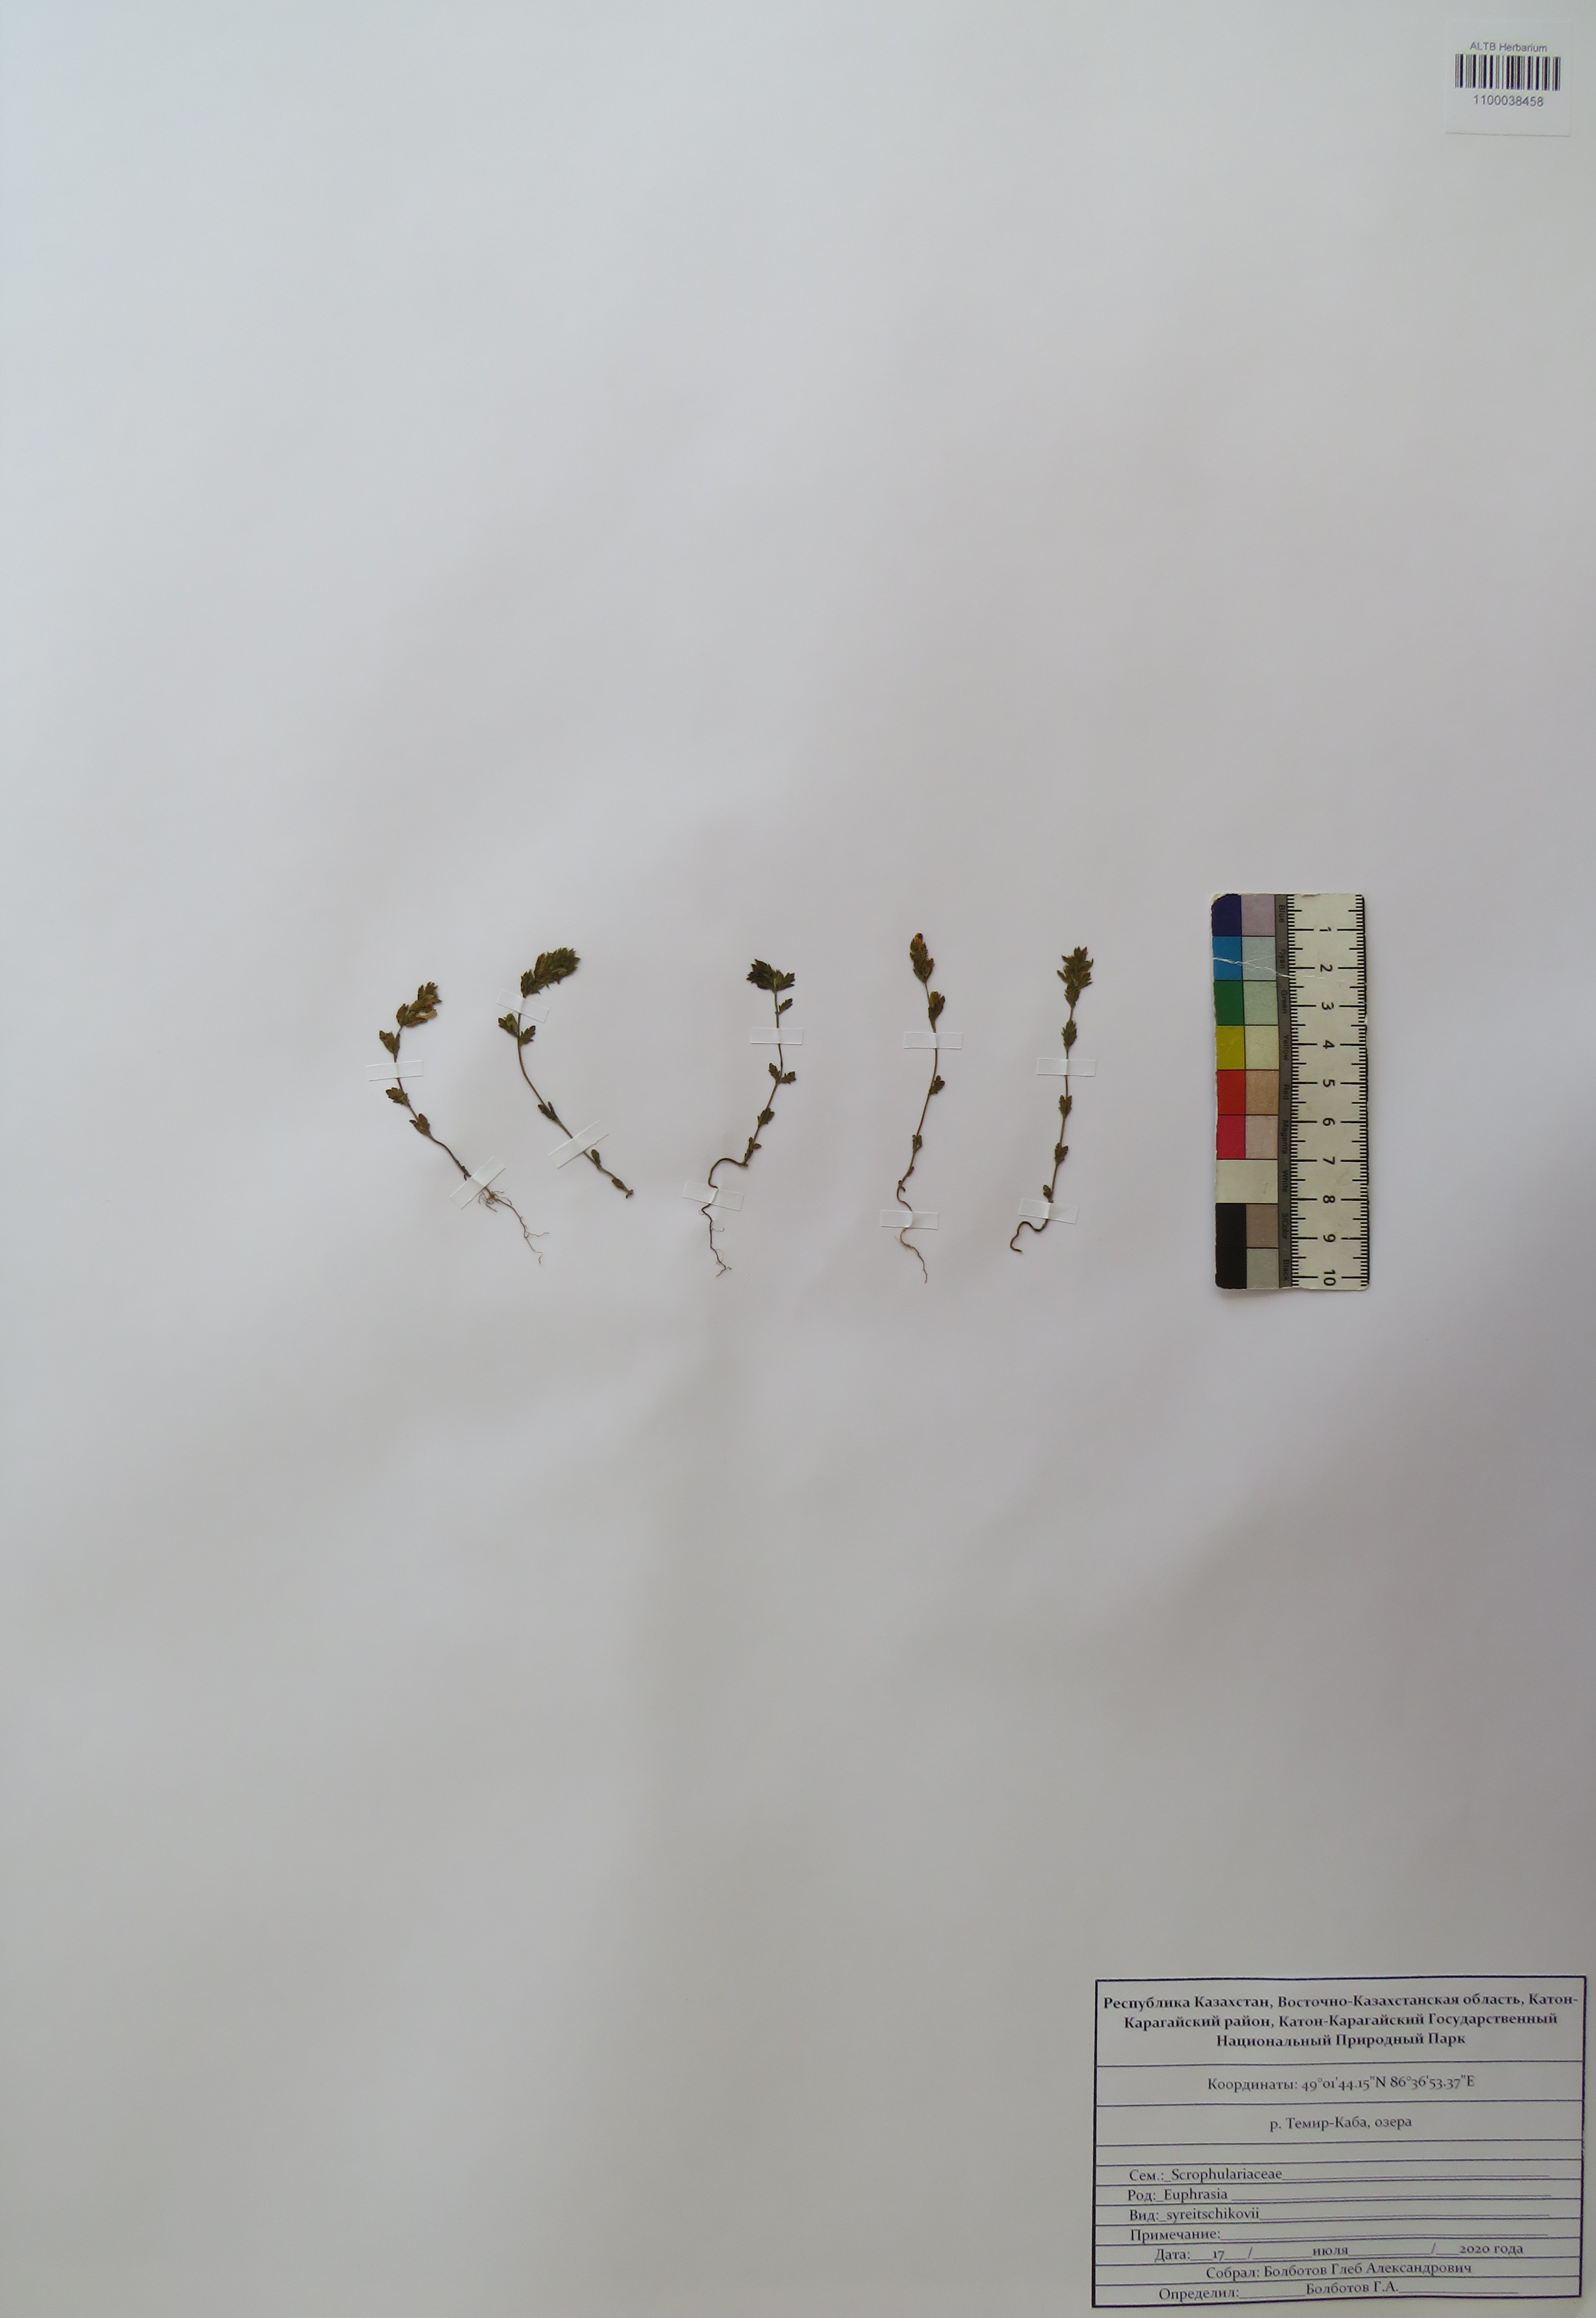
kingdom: Plantae
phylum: Tracheophyta
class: Magnoliopsida
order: Lamiales
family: Orobanchaceae
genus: Euphrasia
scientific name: Euphrasia syreitschikovii
